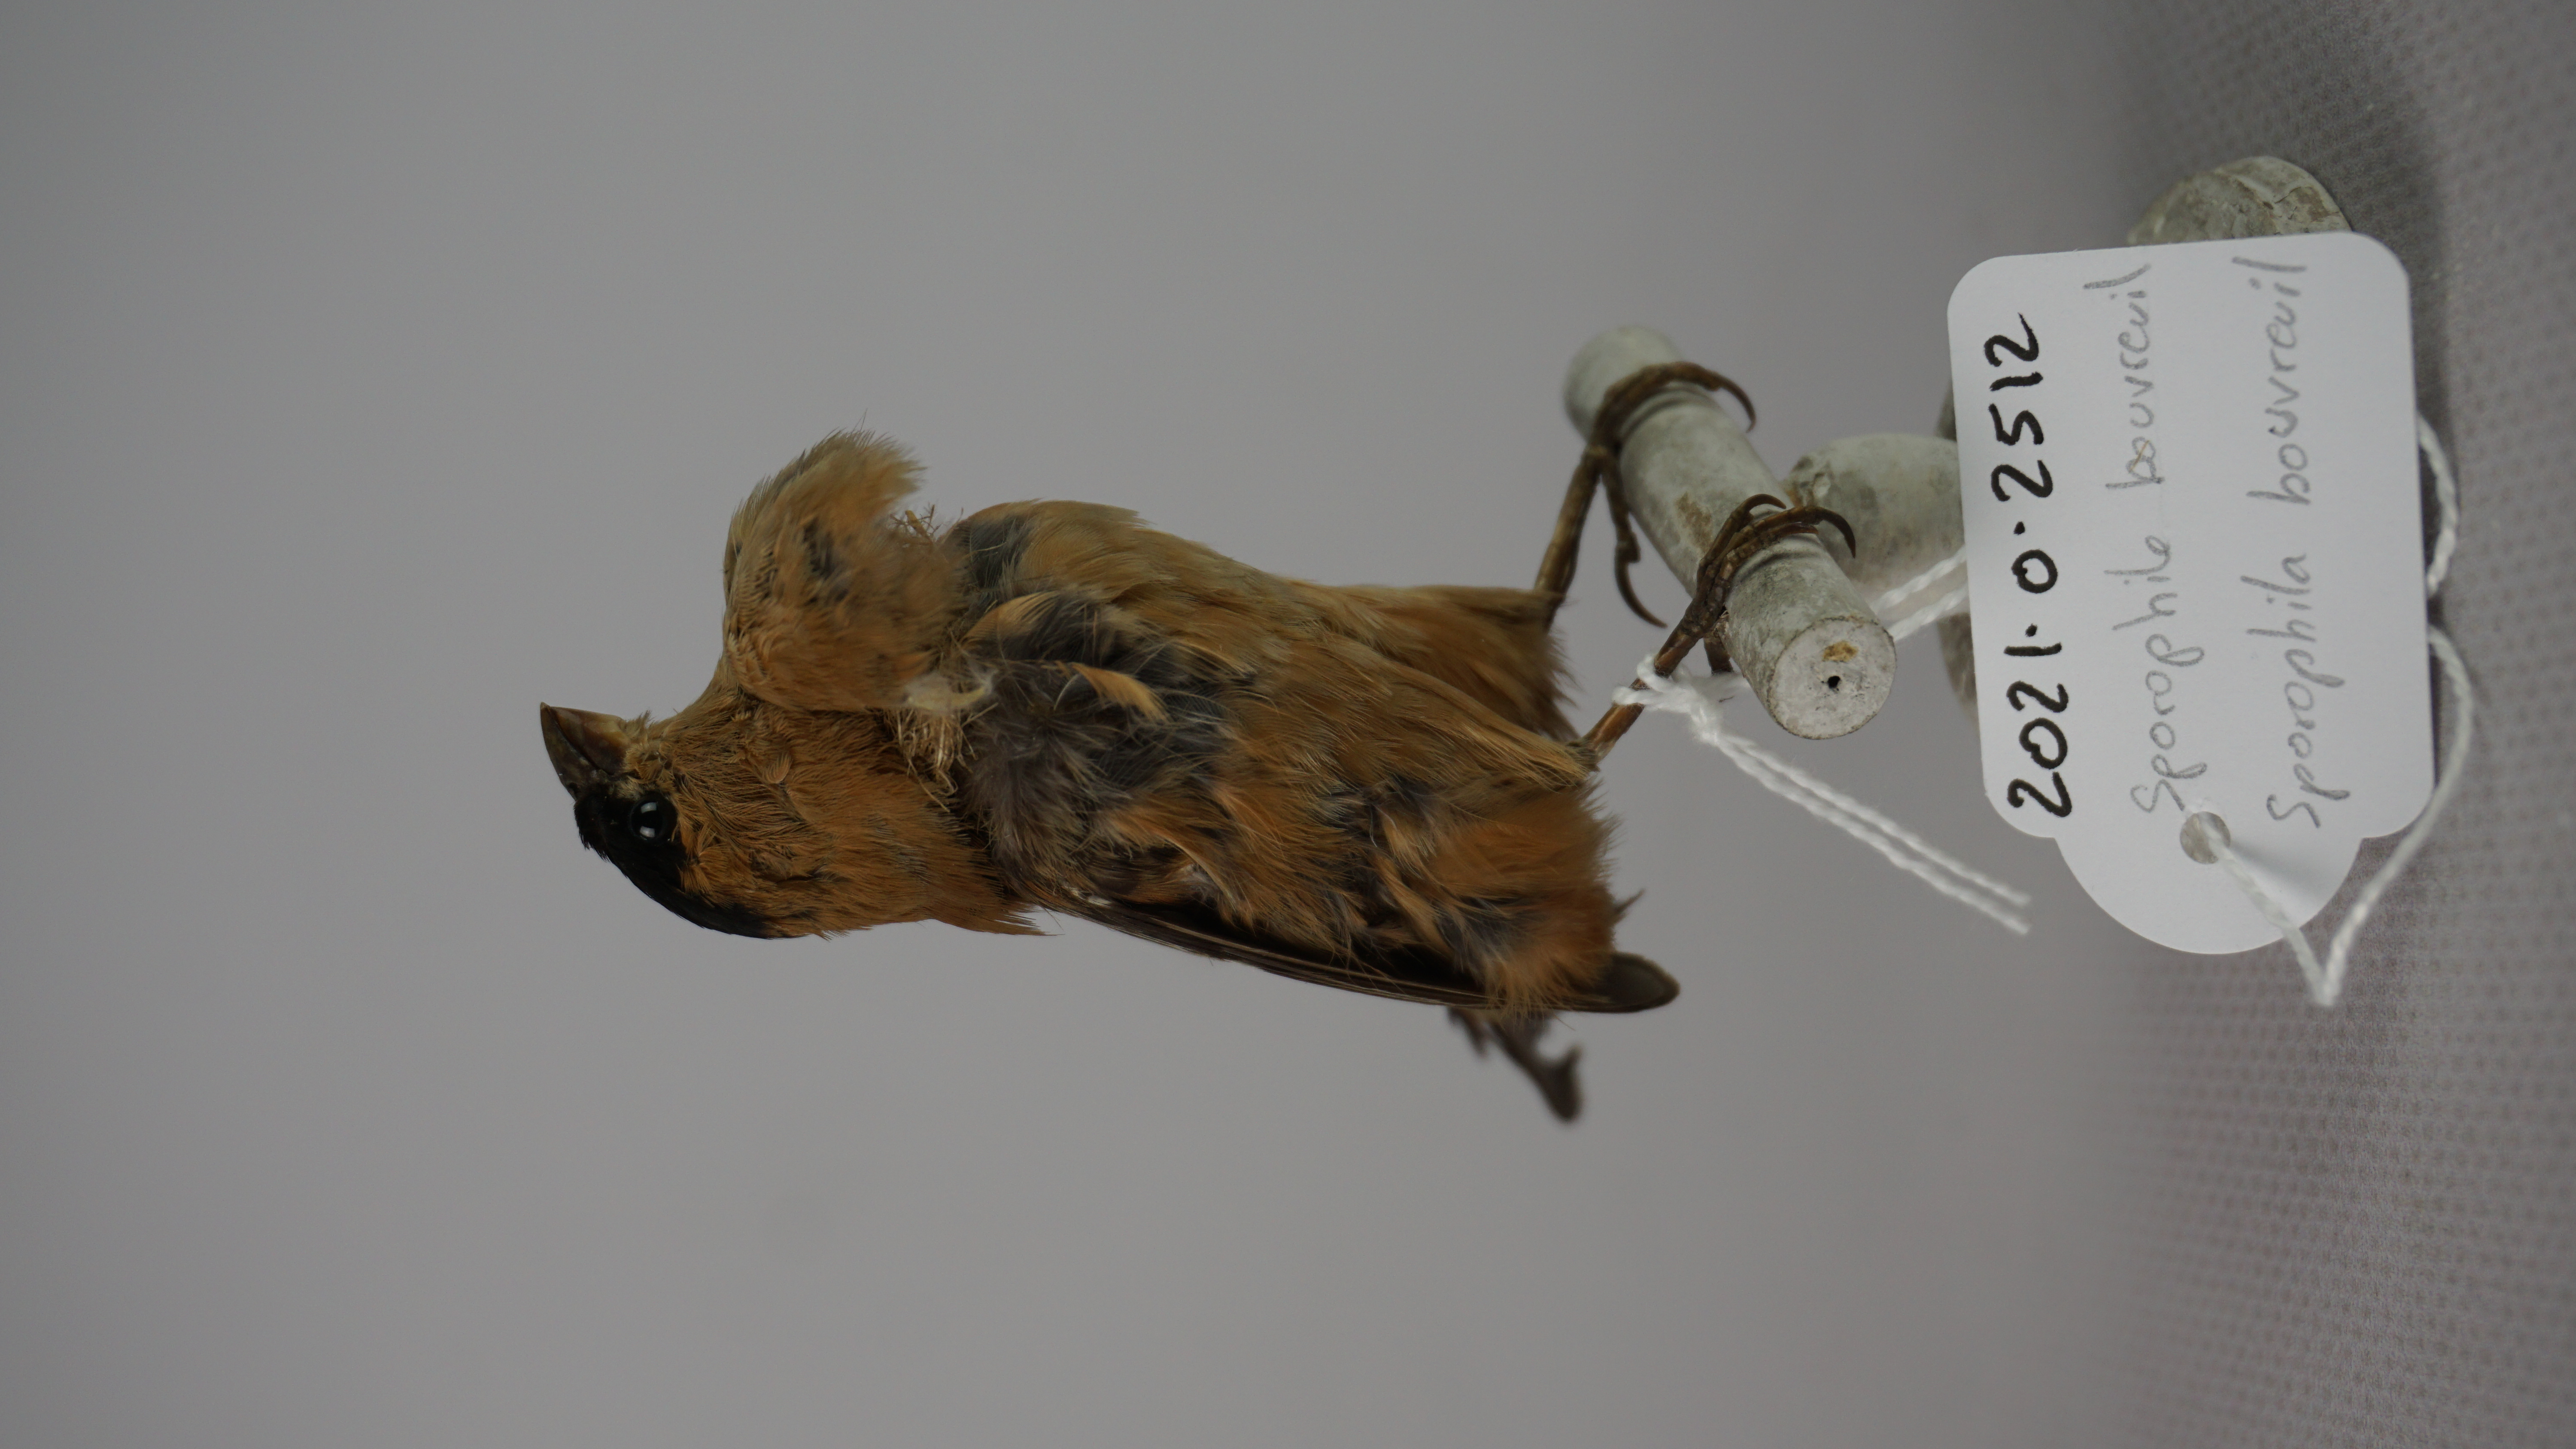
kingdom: Animalia
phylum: Chordata
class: Aves
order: Passeriformes
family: Thraupidae
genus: Sporophila
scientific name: Sporophila bouvreuil
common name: Copper seedeater
